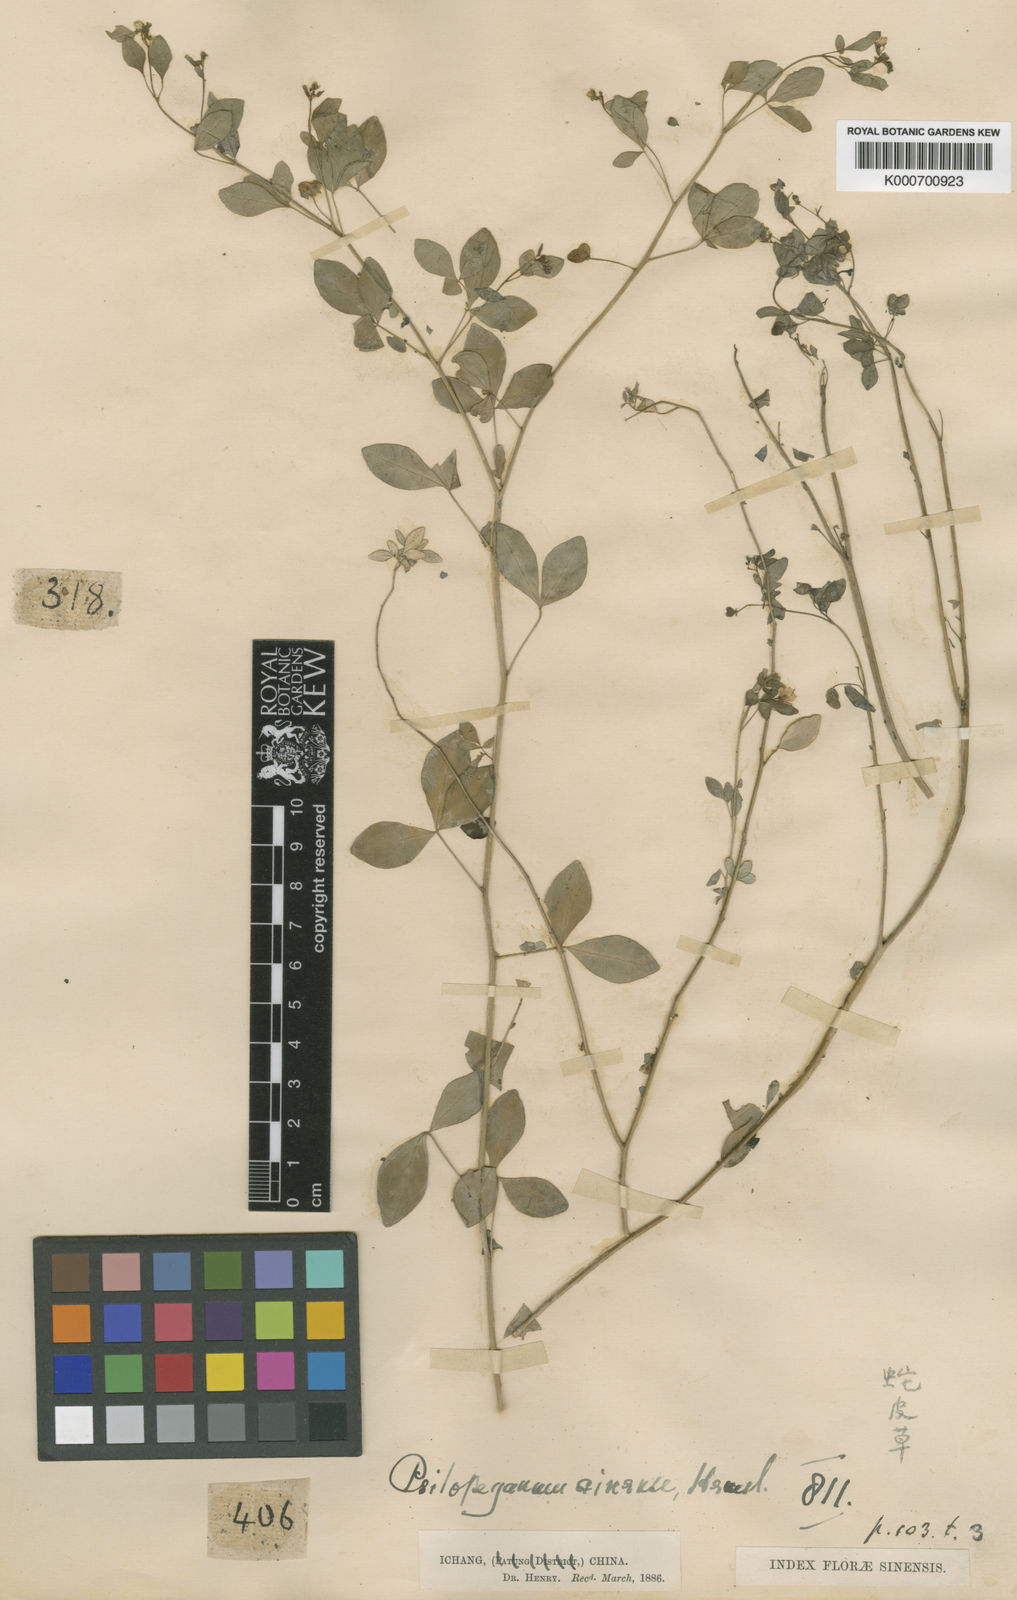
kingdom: Plantae
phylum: Tracheophyta
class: Magnoliopsida
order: Sapindales
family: Rutaceae
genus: Psilopeganum
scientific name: Psilopeganum sinense
